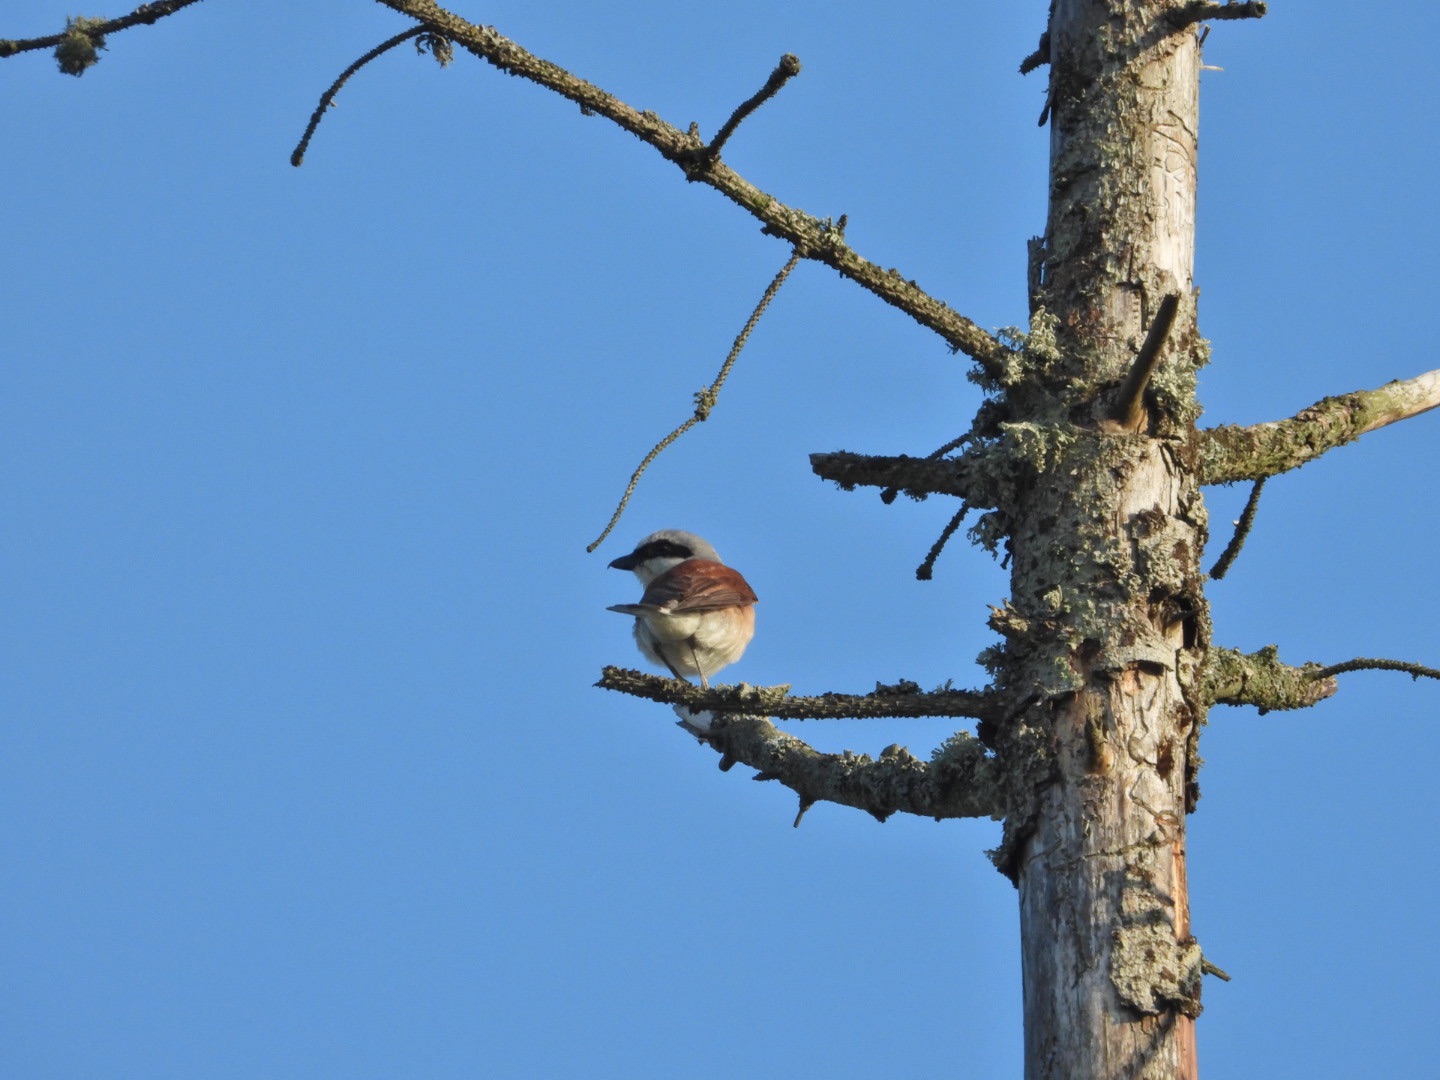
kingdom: Animalia
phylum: Chordata
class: Aves
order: Passeriformes
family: Laniidae
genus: Lanius
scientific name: Lanius collurio
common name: Rødrygget tornskade
